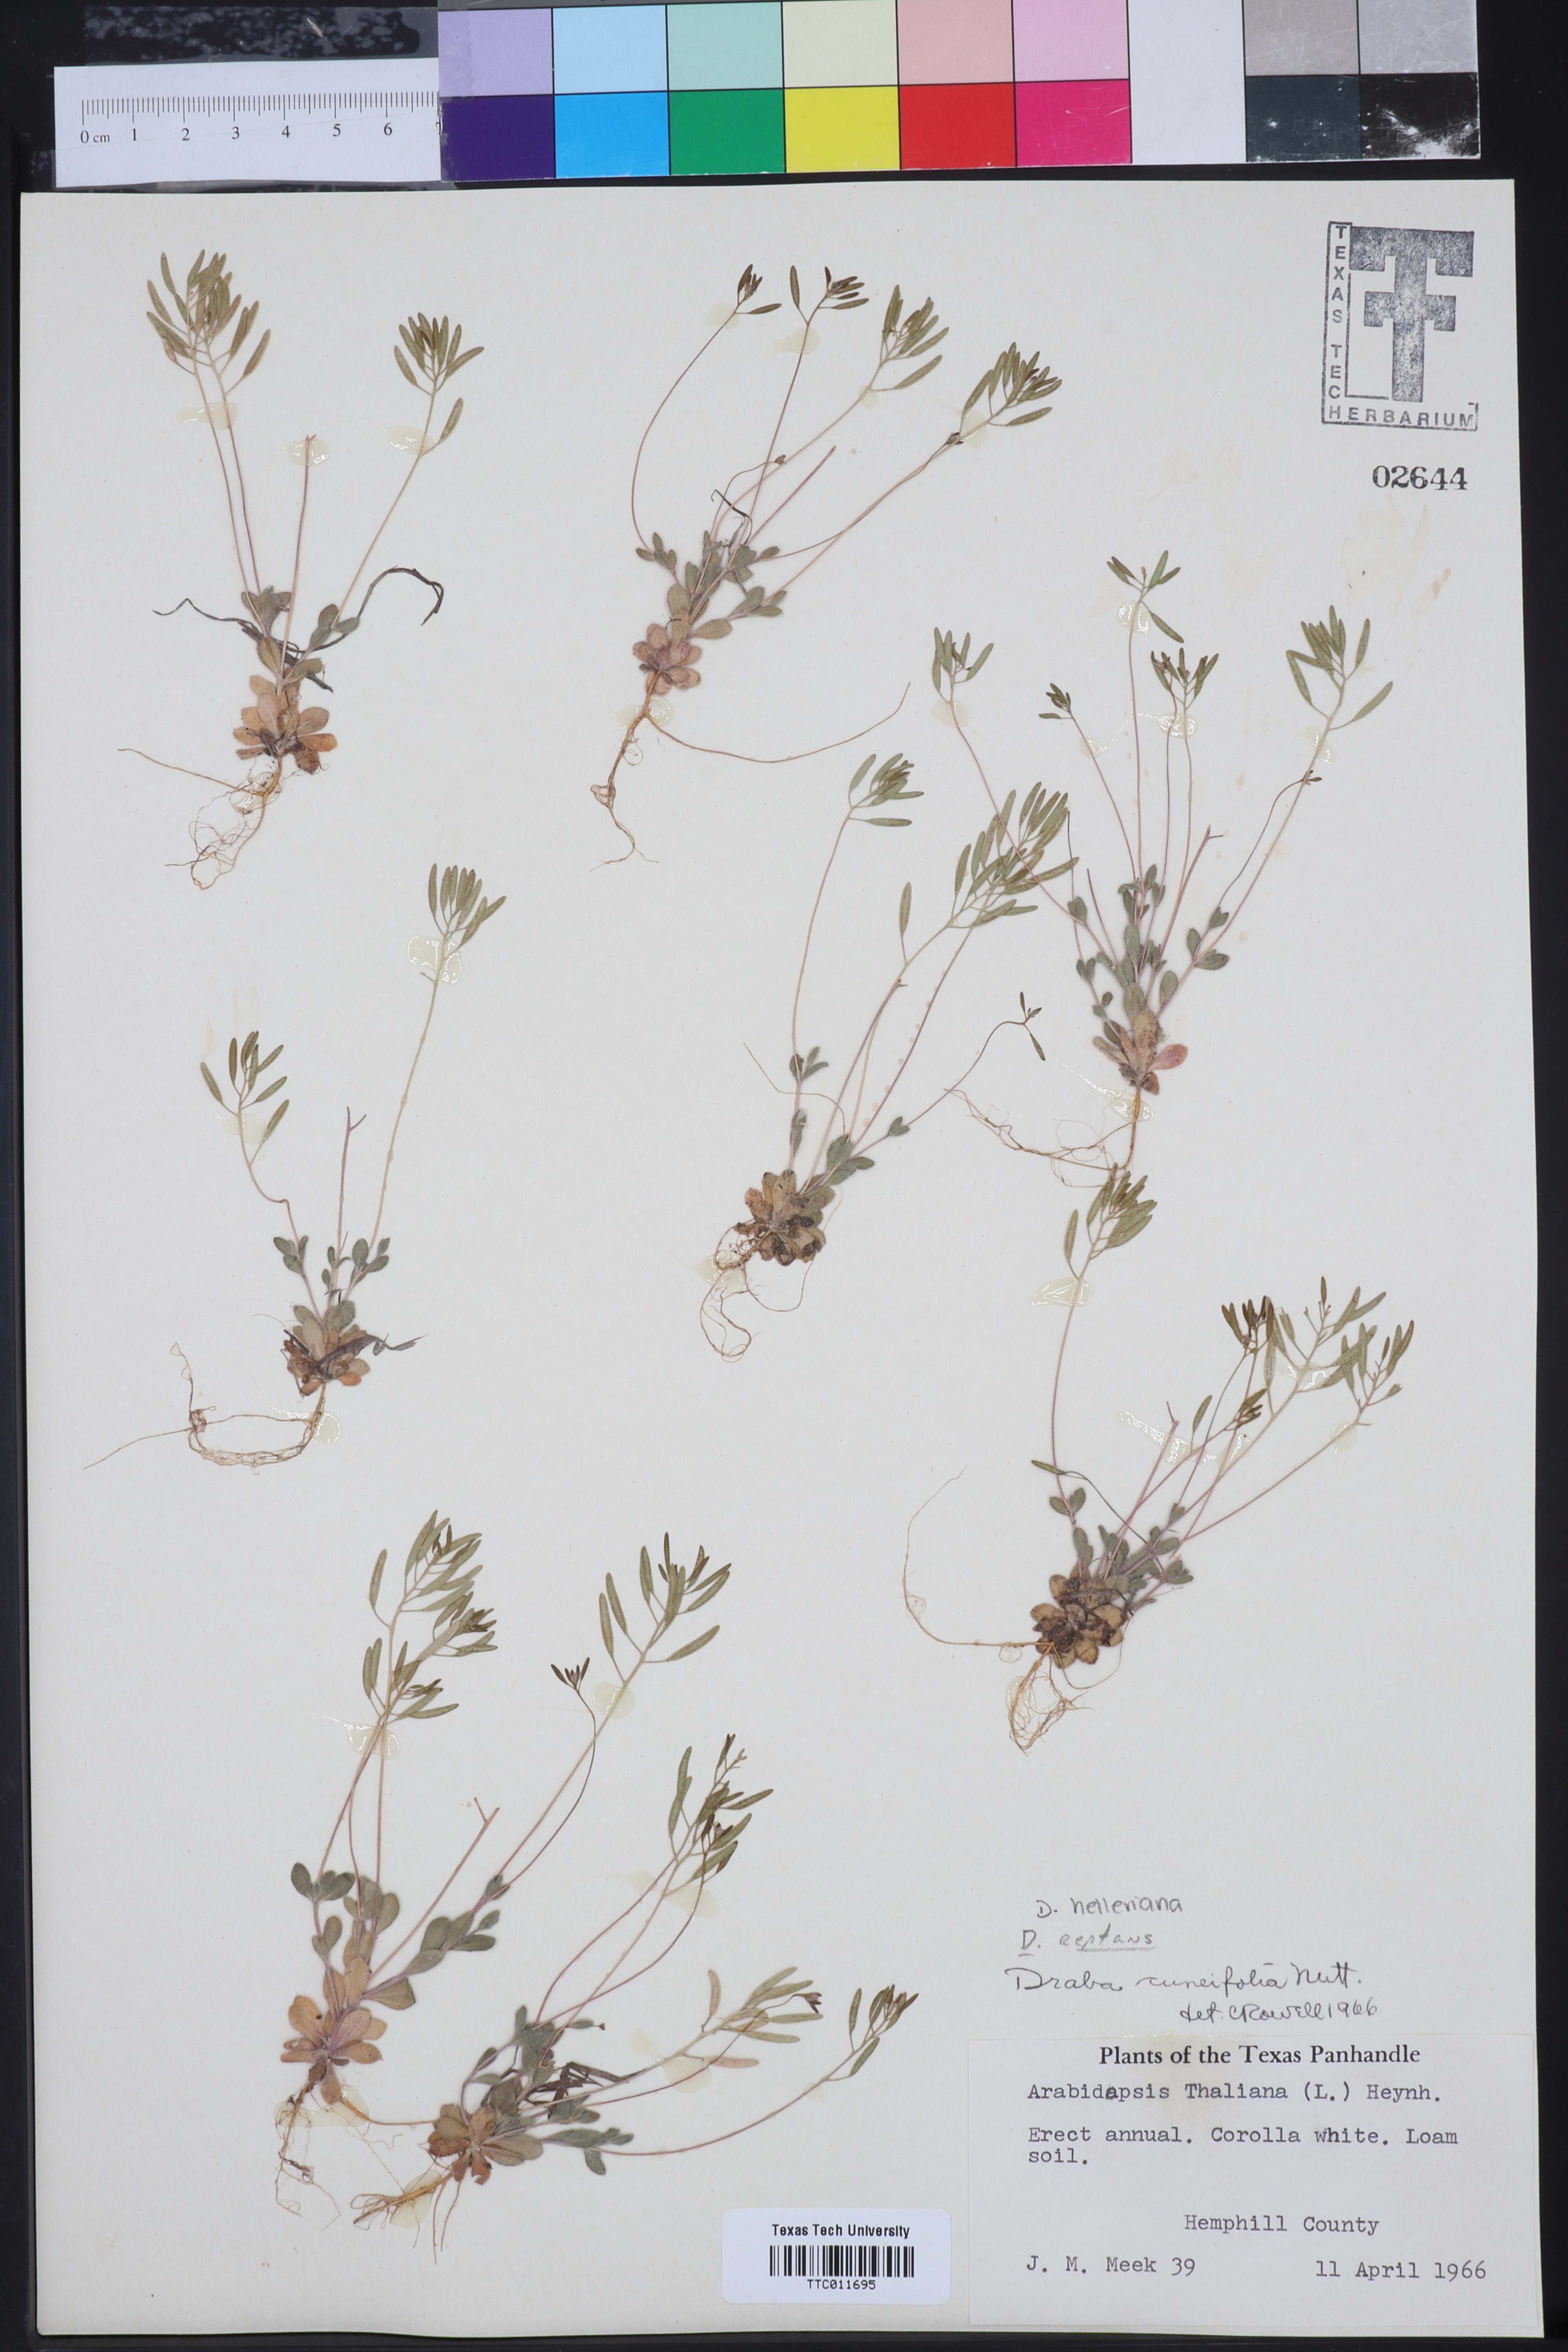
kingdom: Plantae
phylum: Tracheophyta
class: Magnoliopsida
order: Brassicales
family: Brassicaceae
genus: Tomostima
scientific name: Tomostima cuneifolia
